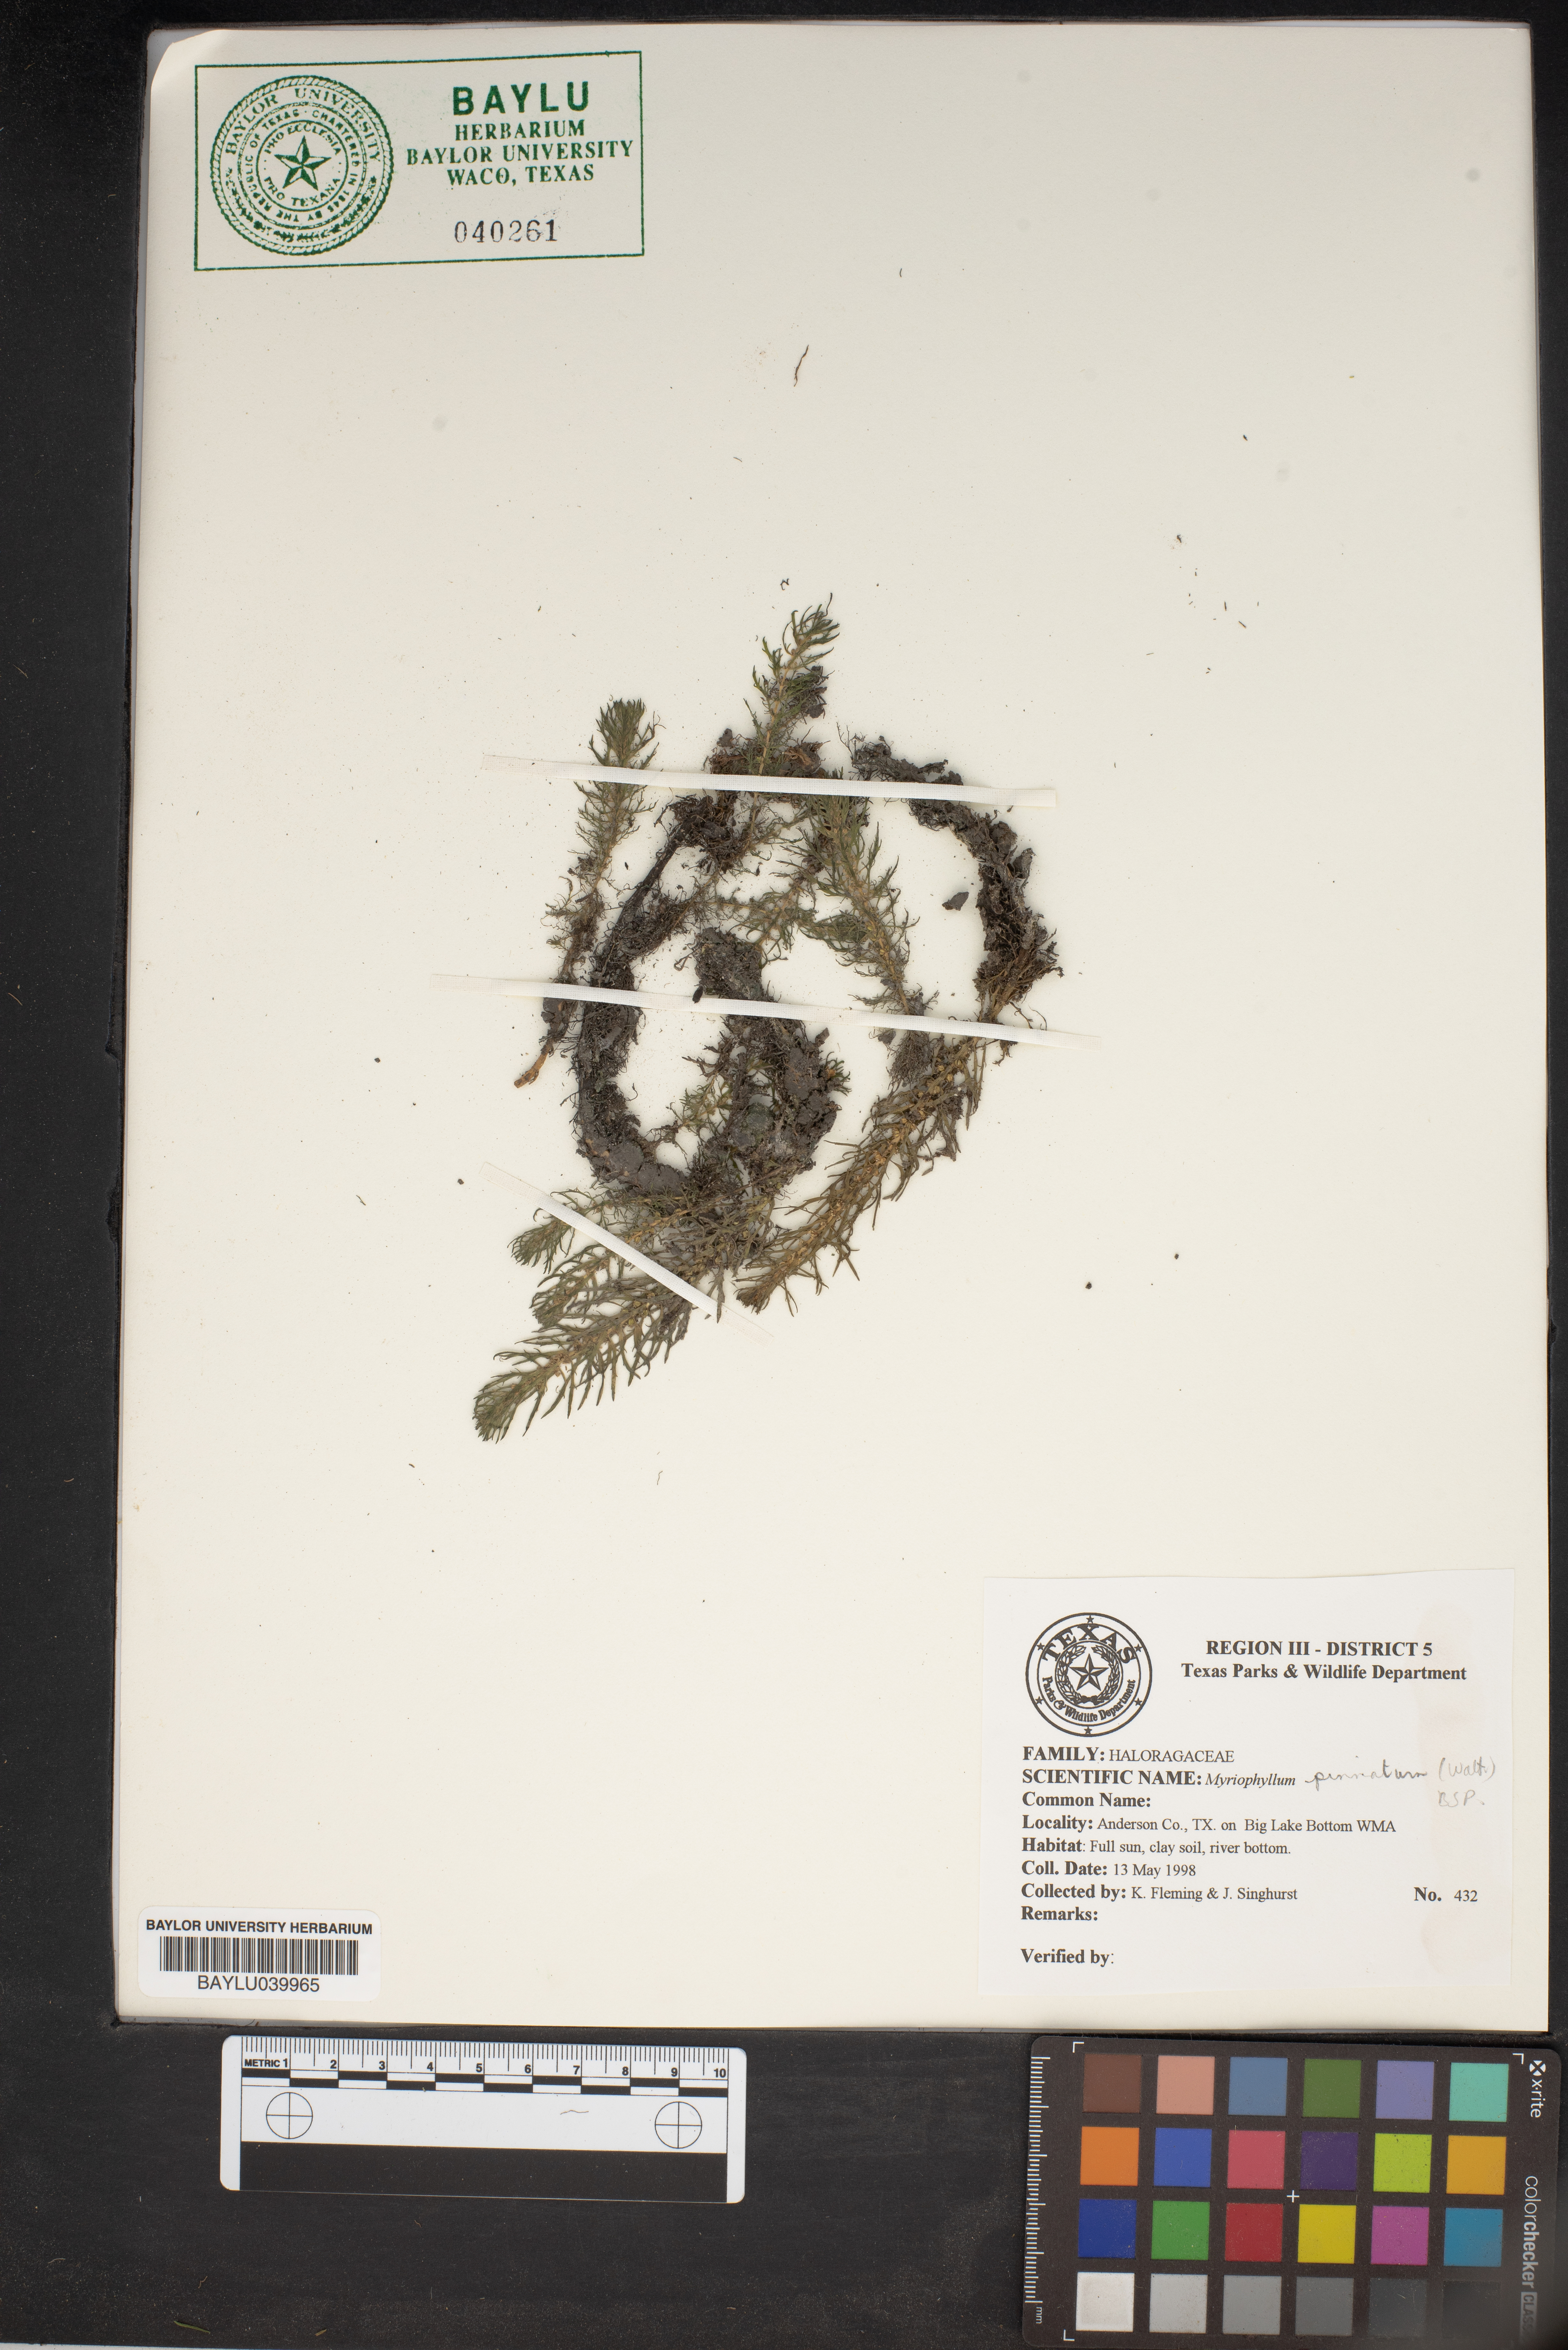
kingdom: Plantae
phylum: Tracheophyta
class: Magnoliopsida
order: Saxifragales
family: Haloragaceae
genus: Myriophyllum
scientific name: Myriophyllum pinnatum
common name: Cut-leaved water-milfoil
